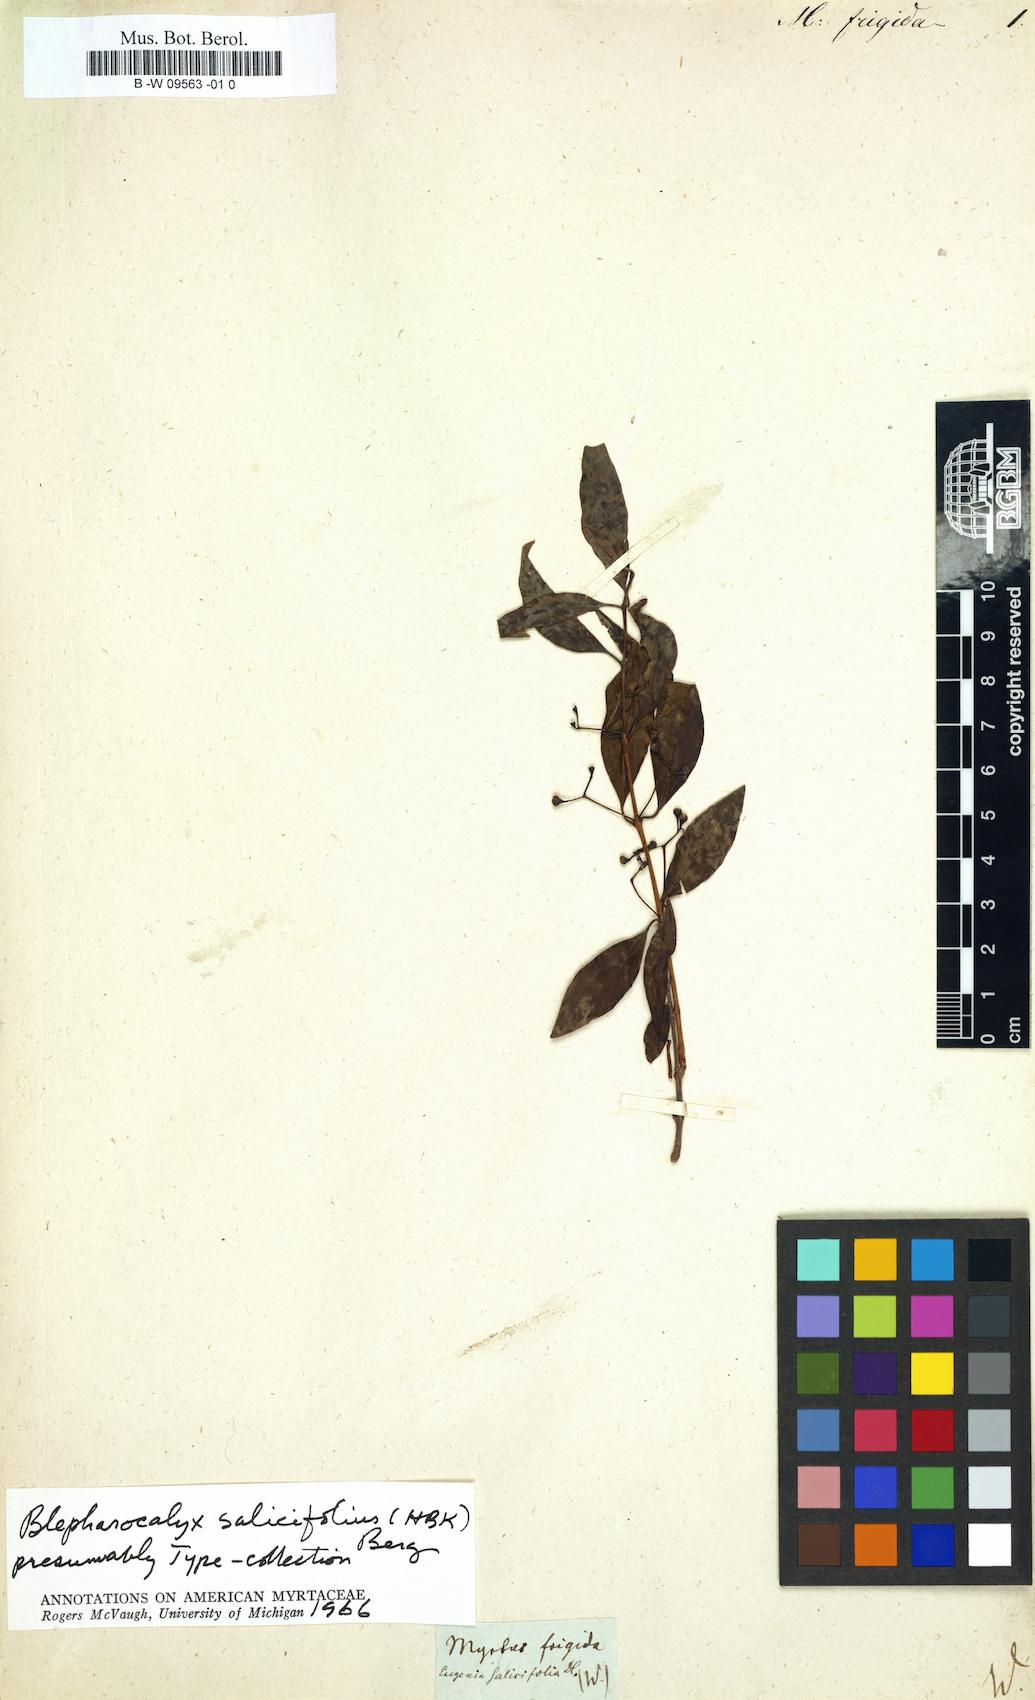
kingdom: Plantae
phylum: Tracheophyta
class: Magnoliopsida
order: Myrtales
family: Myrtaceae
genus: Myrtus
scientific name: Myrtus frigida
